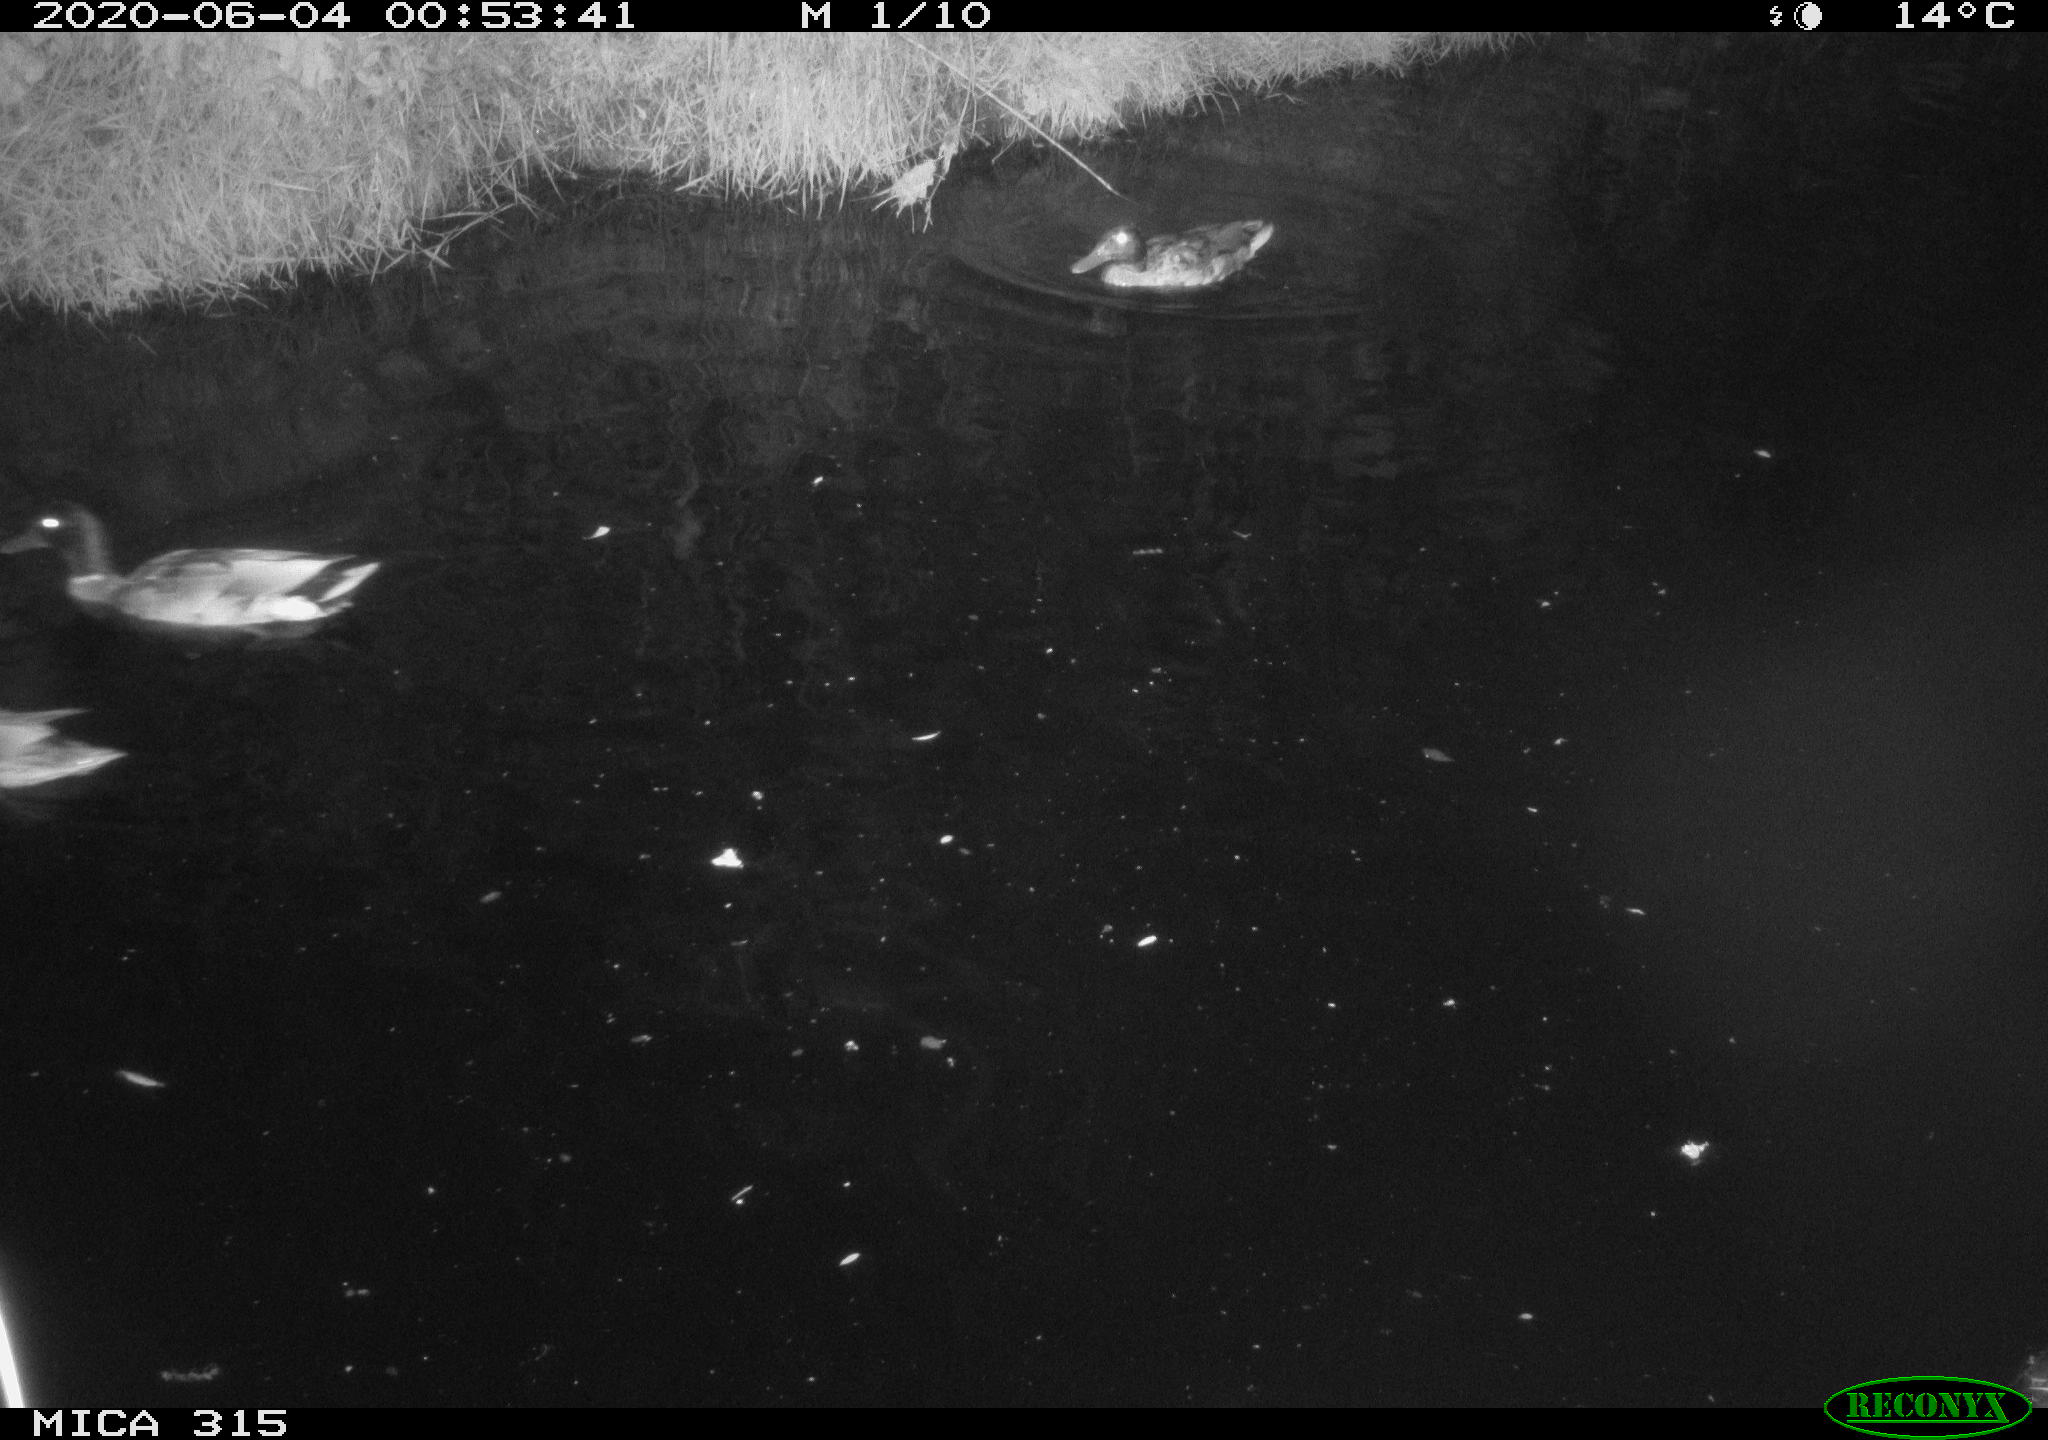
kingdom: Animalia
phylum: Chordata
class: Aves
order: Anseriformes
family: Anatidae
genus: Anas
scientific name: Anas platyrhynchos
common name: Mallard
